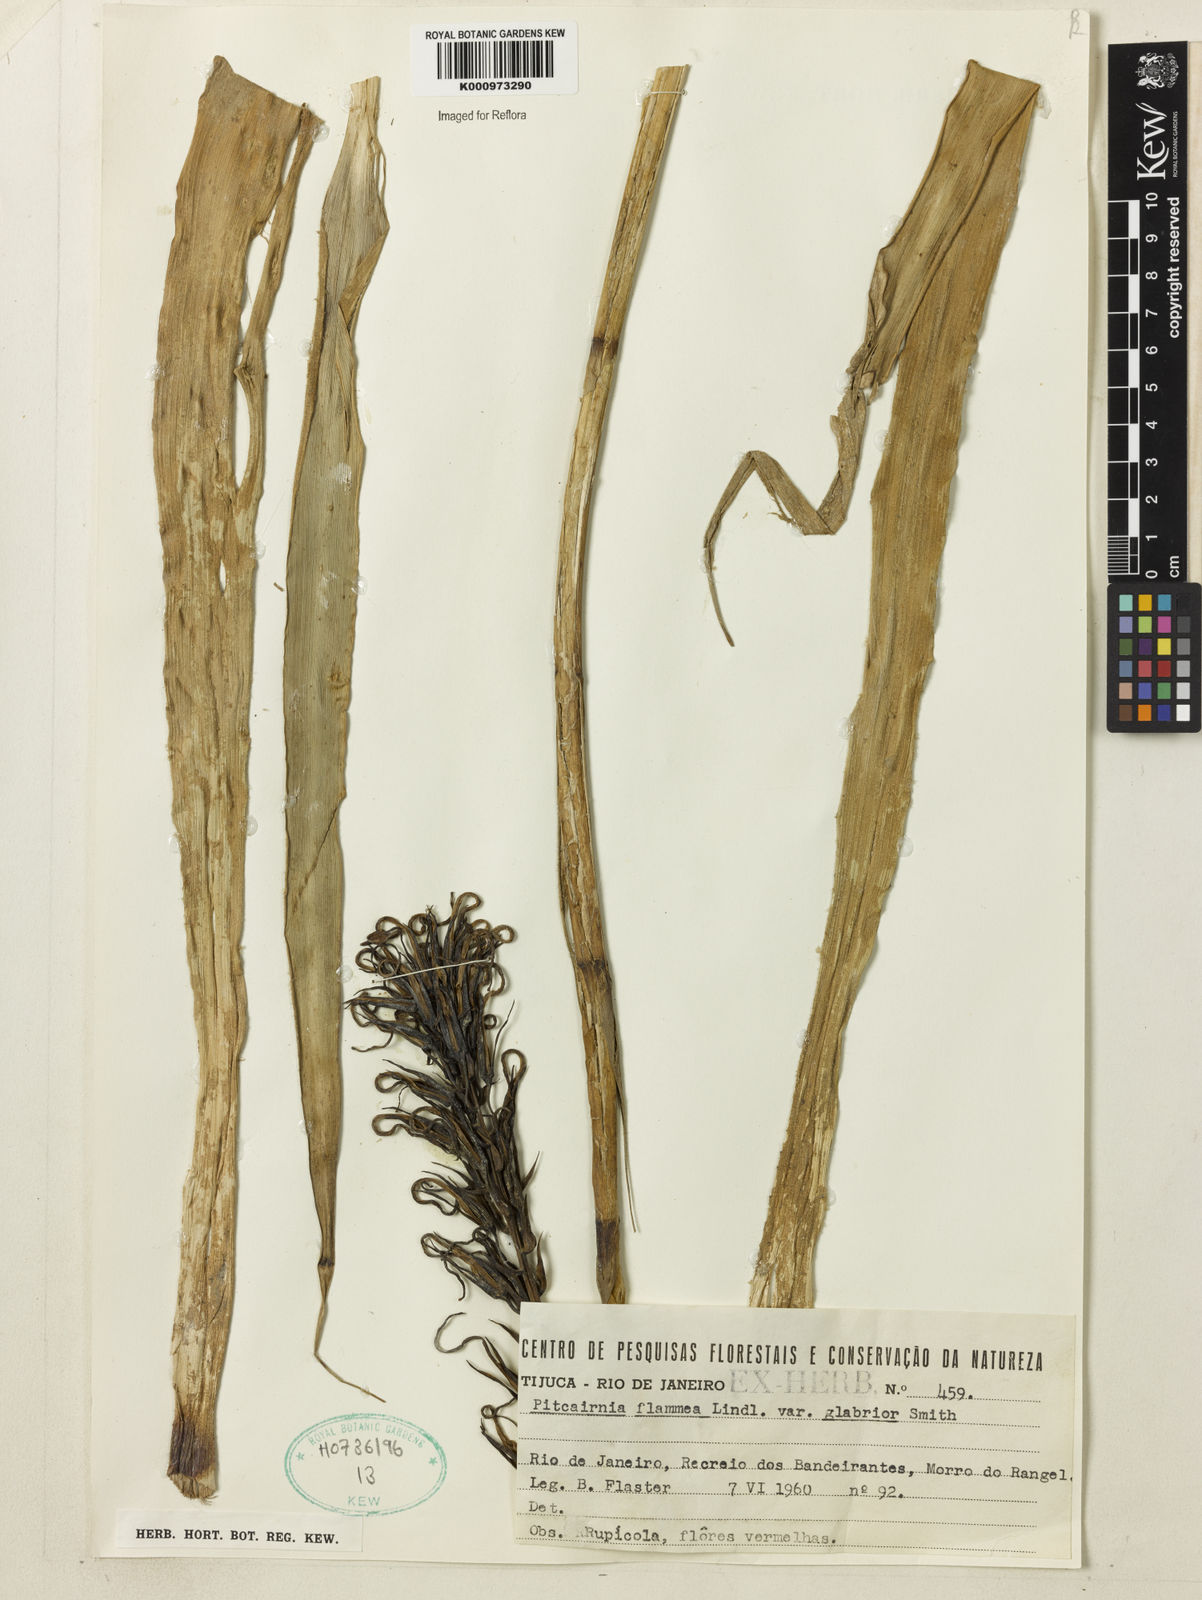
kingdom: Plantae
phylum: Tracheophyta
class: Liliopsida
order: Poales
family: Bromeliaceae
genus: Pitcairnia
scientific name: Pitcairnia flammea
